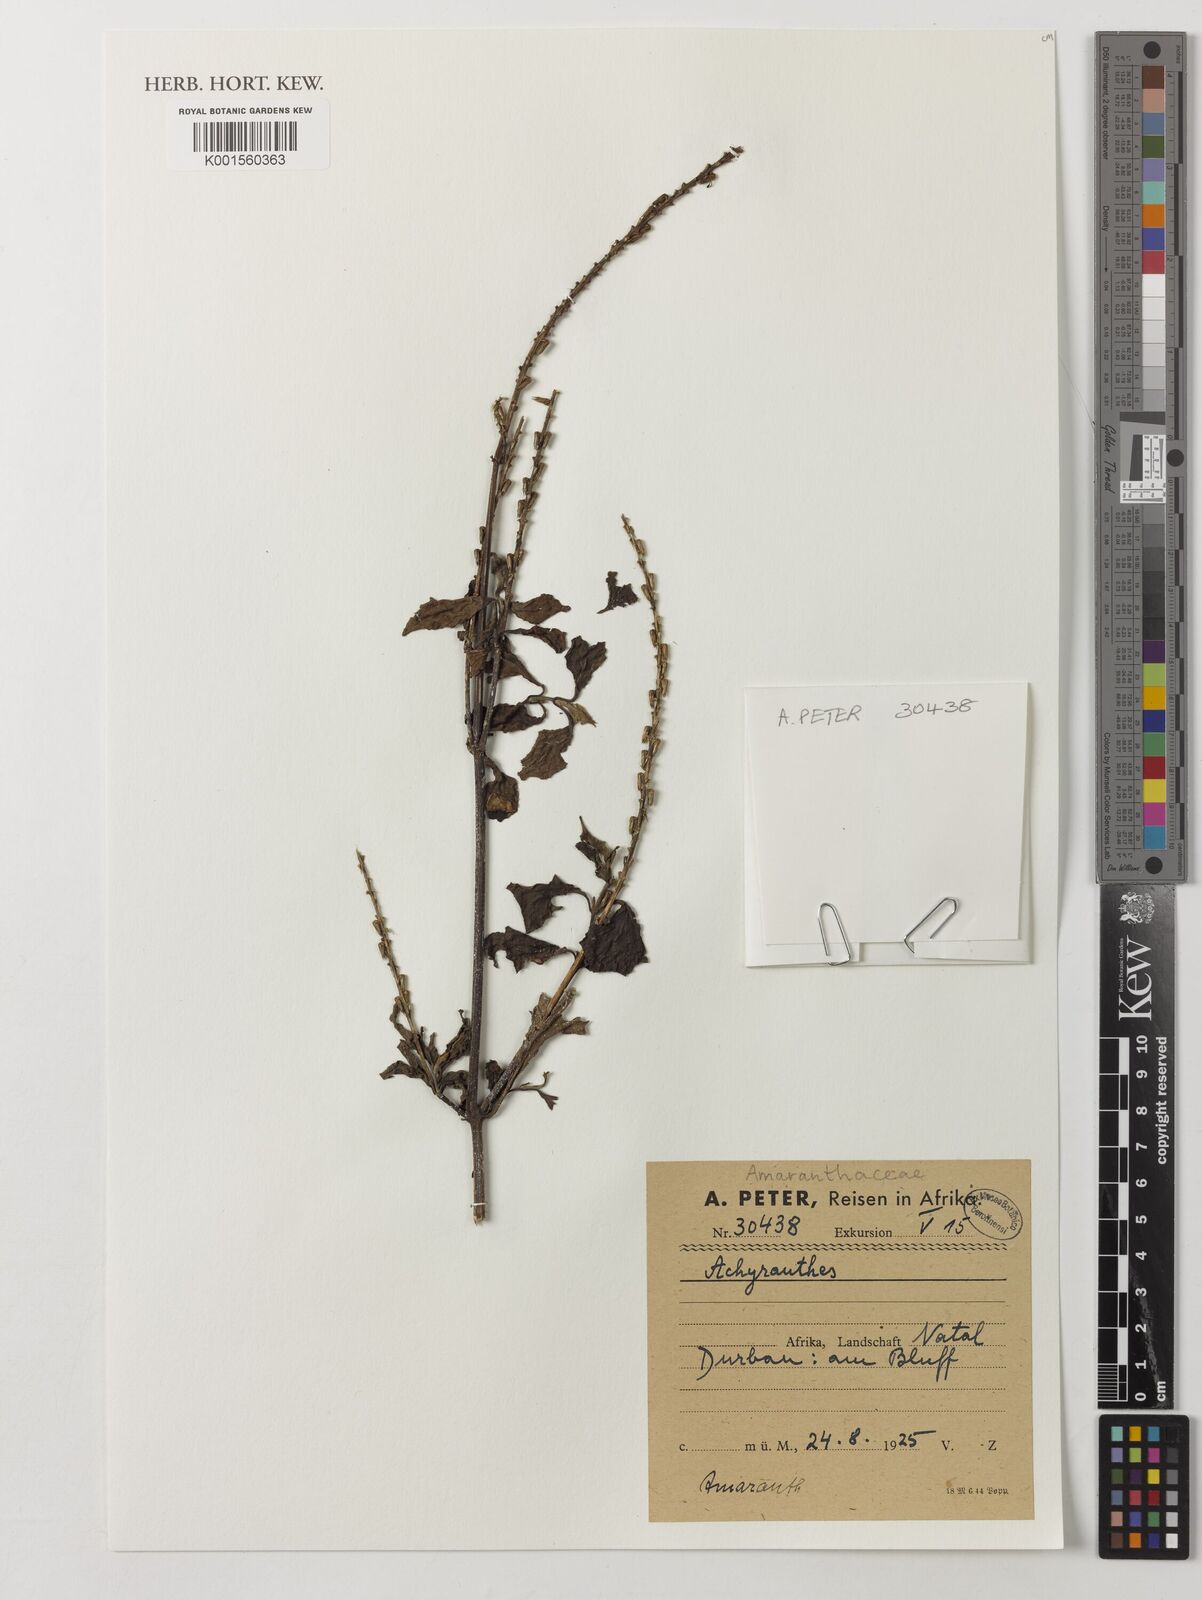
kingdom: Plantae
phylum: Tracheophyta
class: Magnoliopsida
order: Caryophyllales
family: Amaranthaceae
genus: Achyranthes
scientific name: Achyranthes
